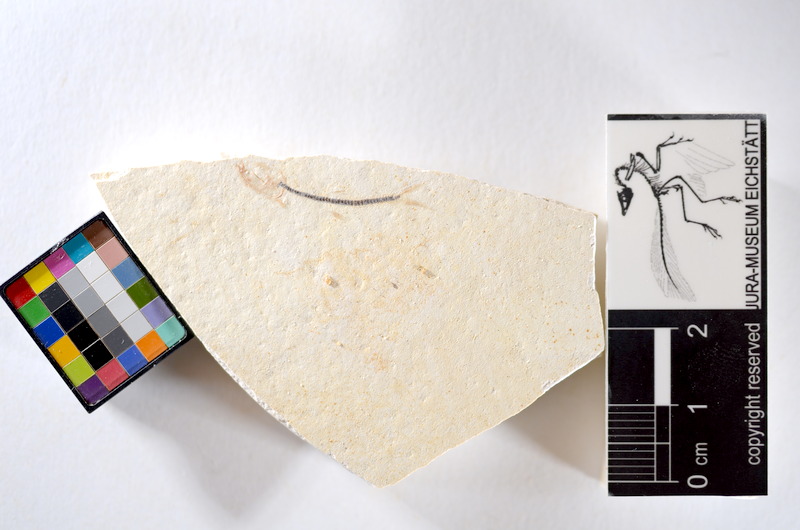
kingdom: Animalia
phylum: Chordata
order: Salmoniformes
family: Orthogonikleithridae
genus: Orthogonikleithrus
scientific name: Orthogonikleithrus hoelli
